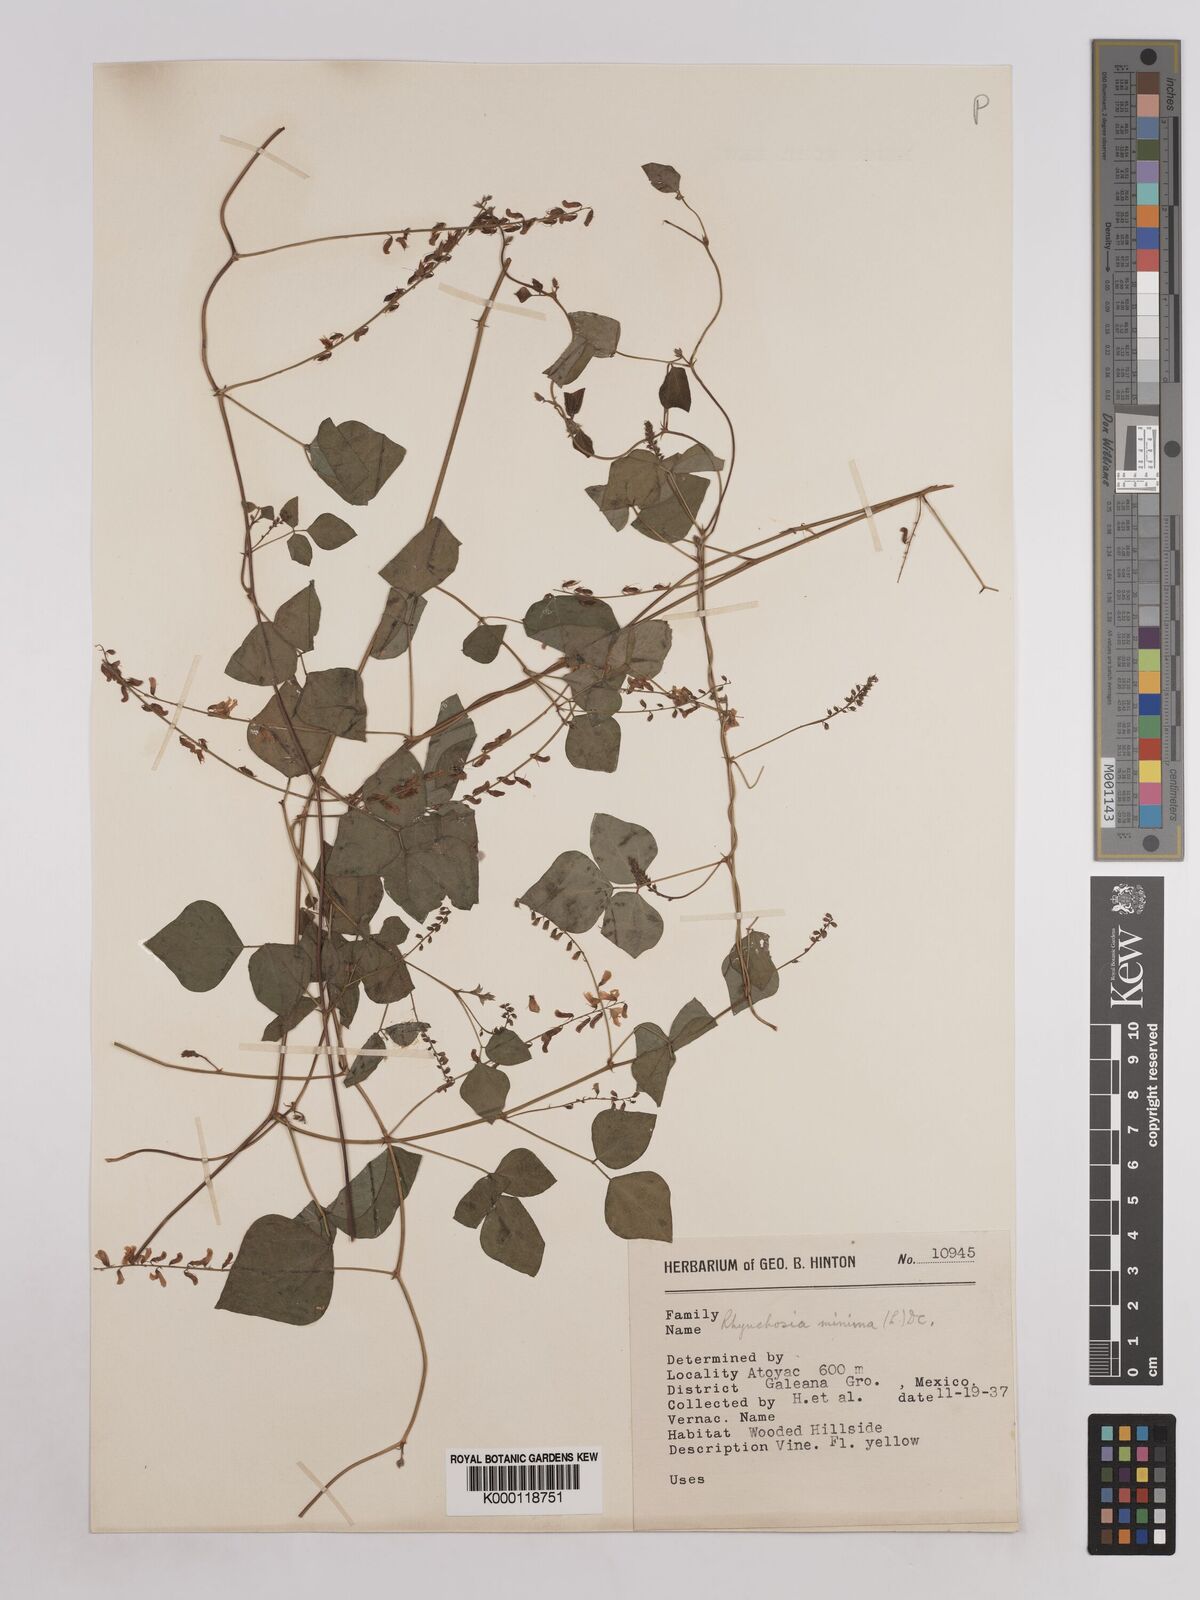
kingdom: Plantae
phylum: Tracheophyta
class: Magnoliopsida
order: Fabales
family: Fabaceae
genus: Rhynchosia
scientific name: Rhynchosia minima
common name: Least snoutbean
